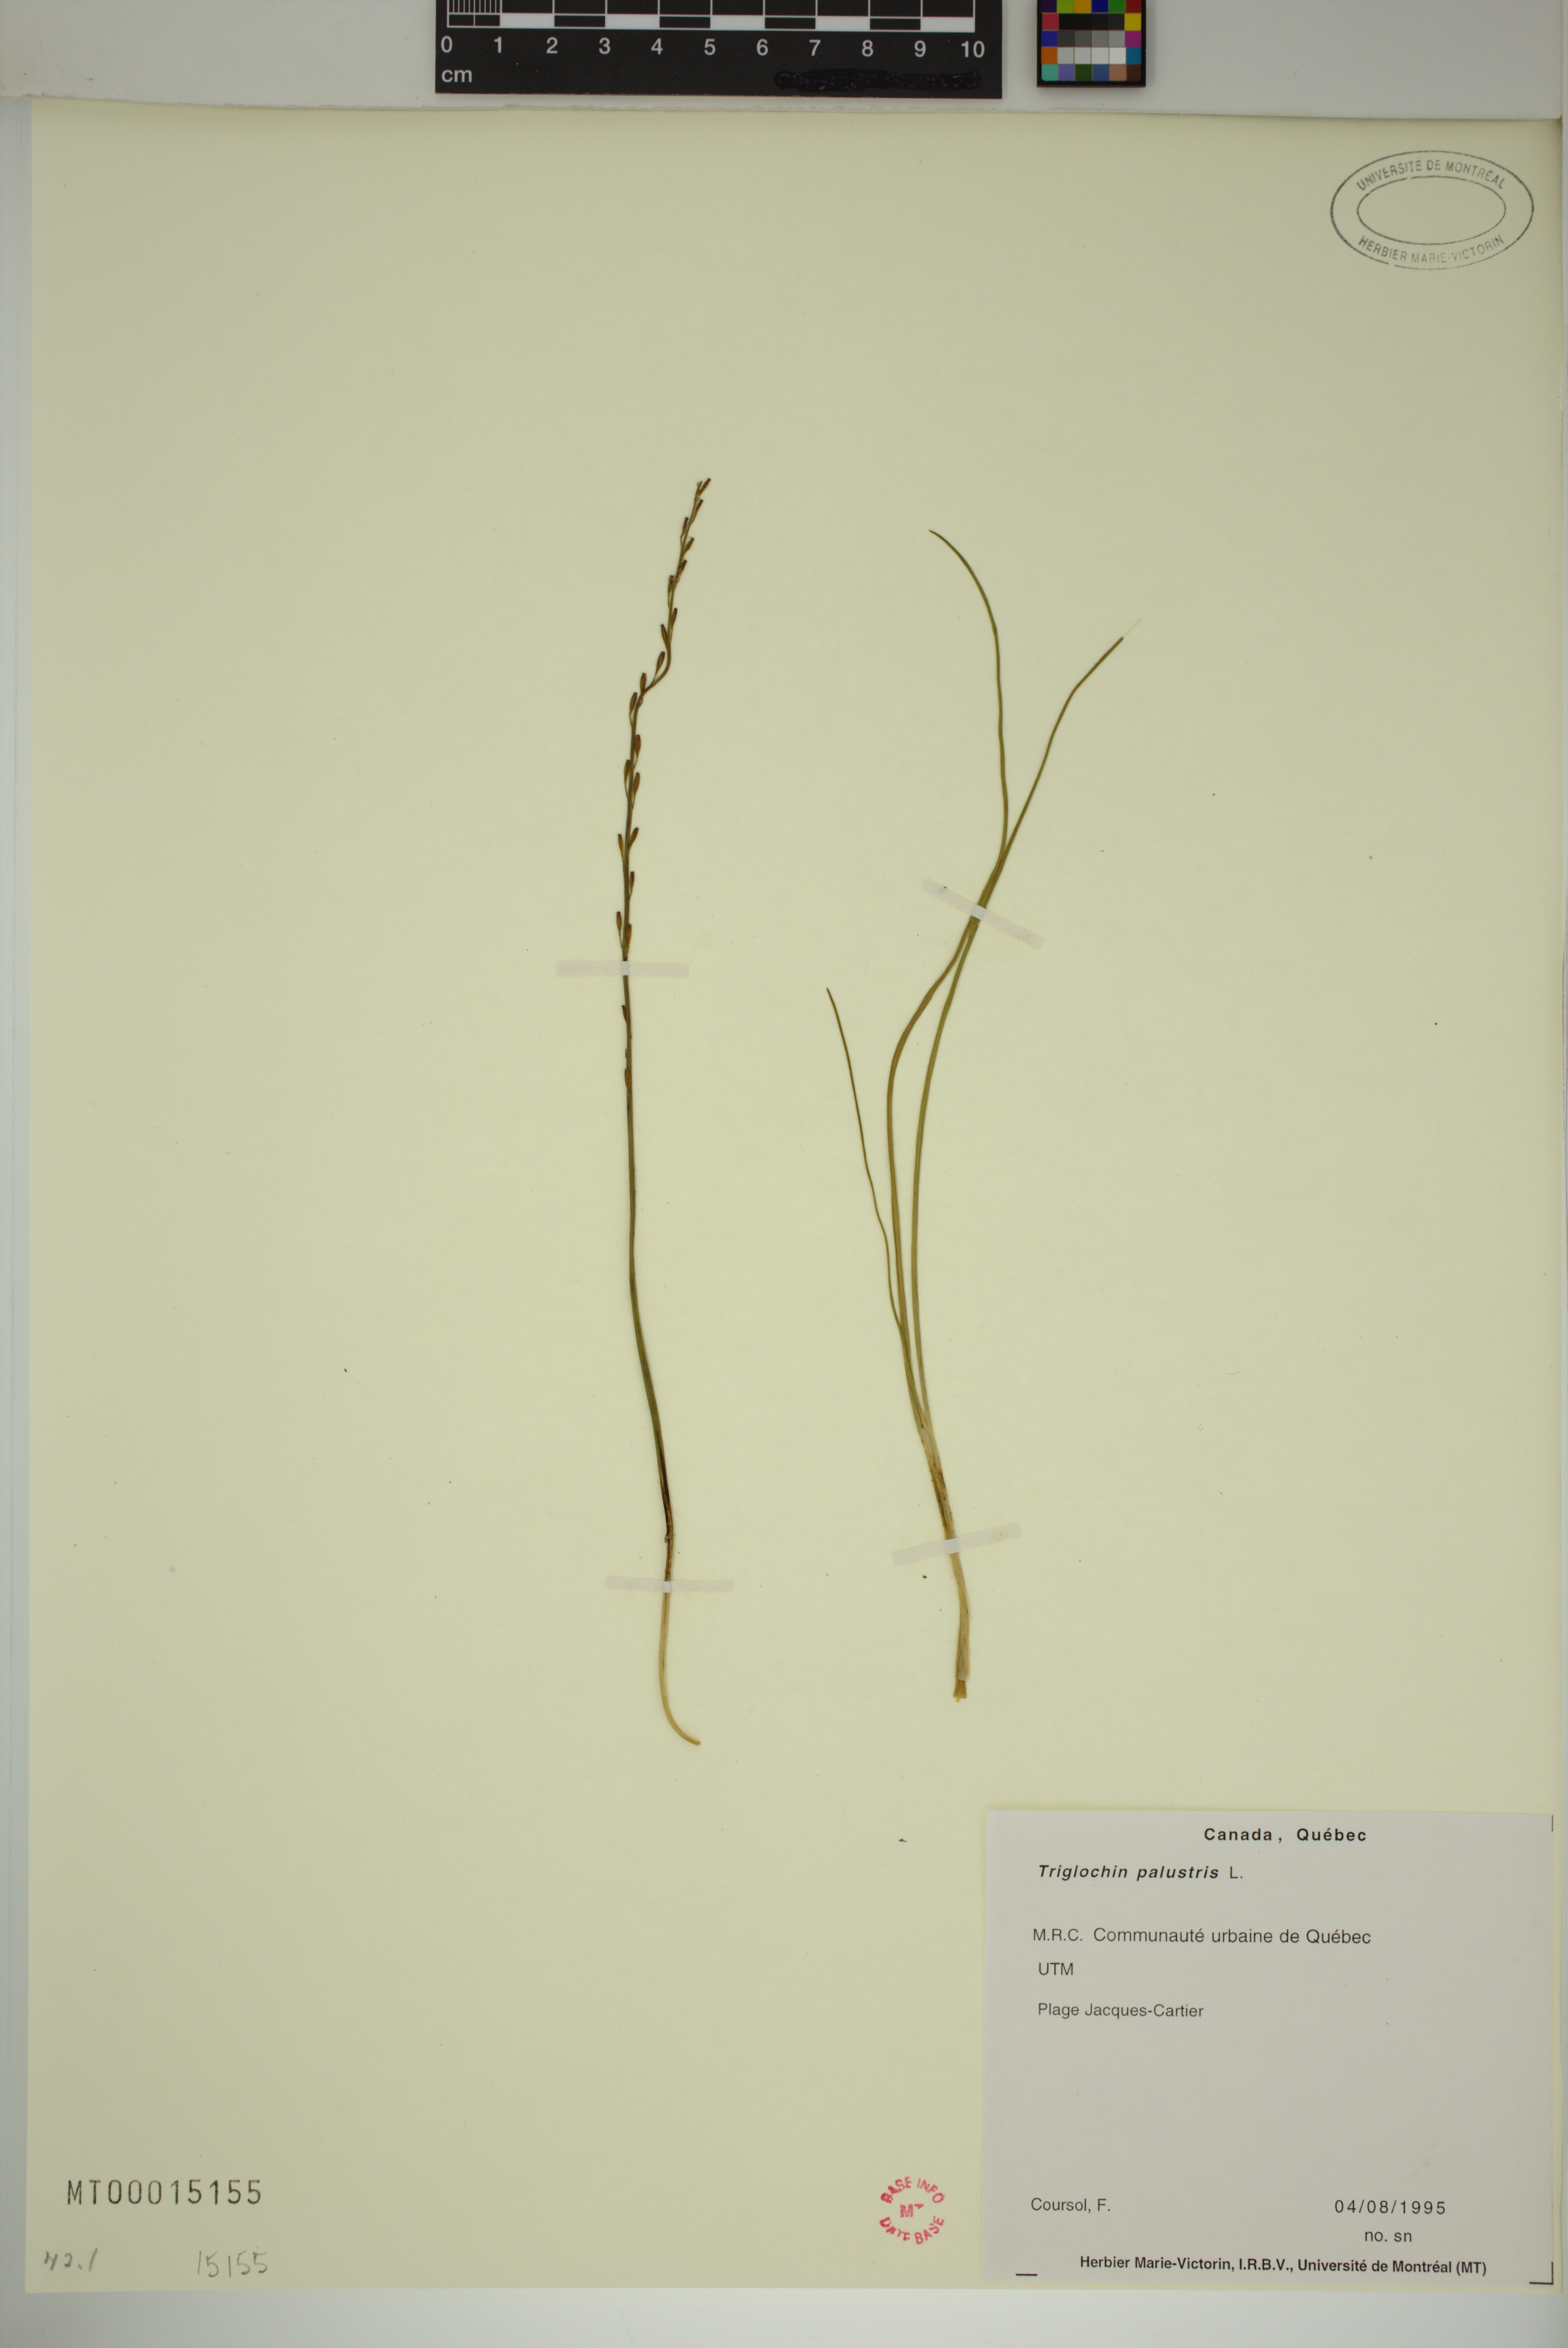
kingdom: Plantae
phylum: Tracheophyta
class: Liliopsida
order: Alismatales
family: Juncaginaceae
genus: Triglochin
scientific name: Triglochin palustris
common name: Marsh arrowgrass
